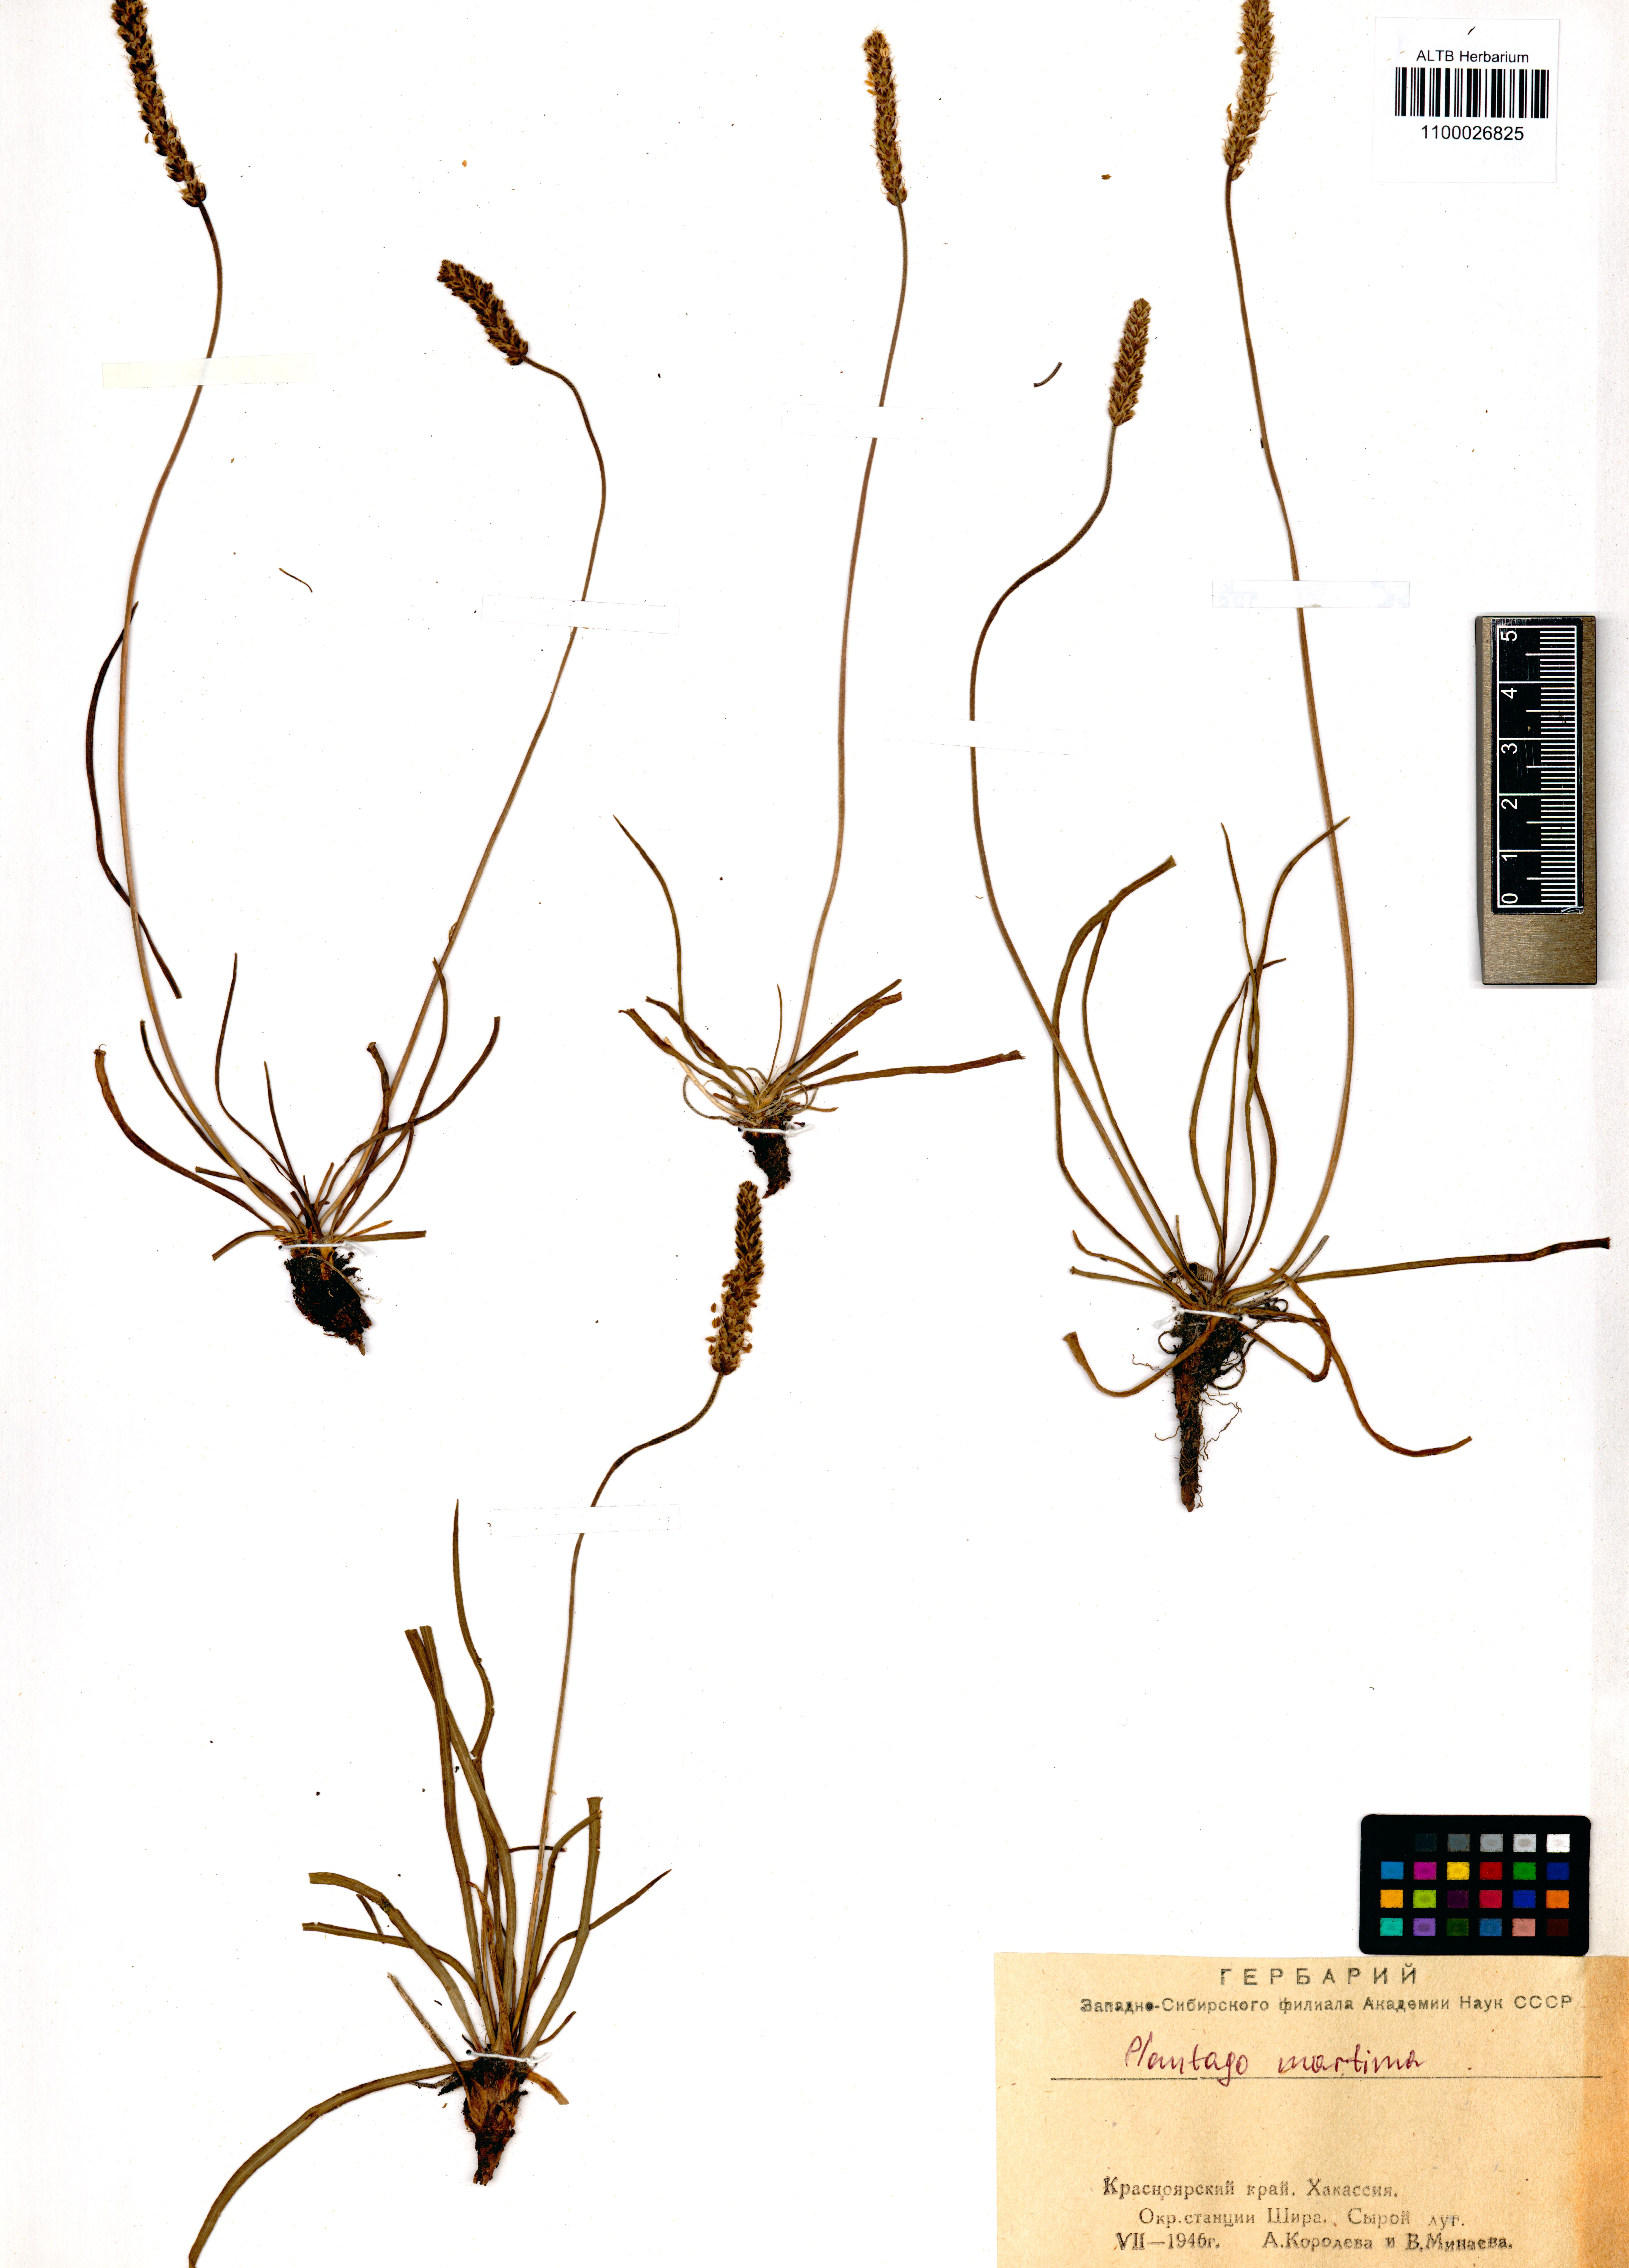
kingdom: Plantae
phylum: Tracheophyta
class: Magnoliopsida
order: Lamiales
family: Plantaginaceae
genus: Plantago
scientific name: Plantago maritima
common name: Sea plantain
